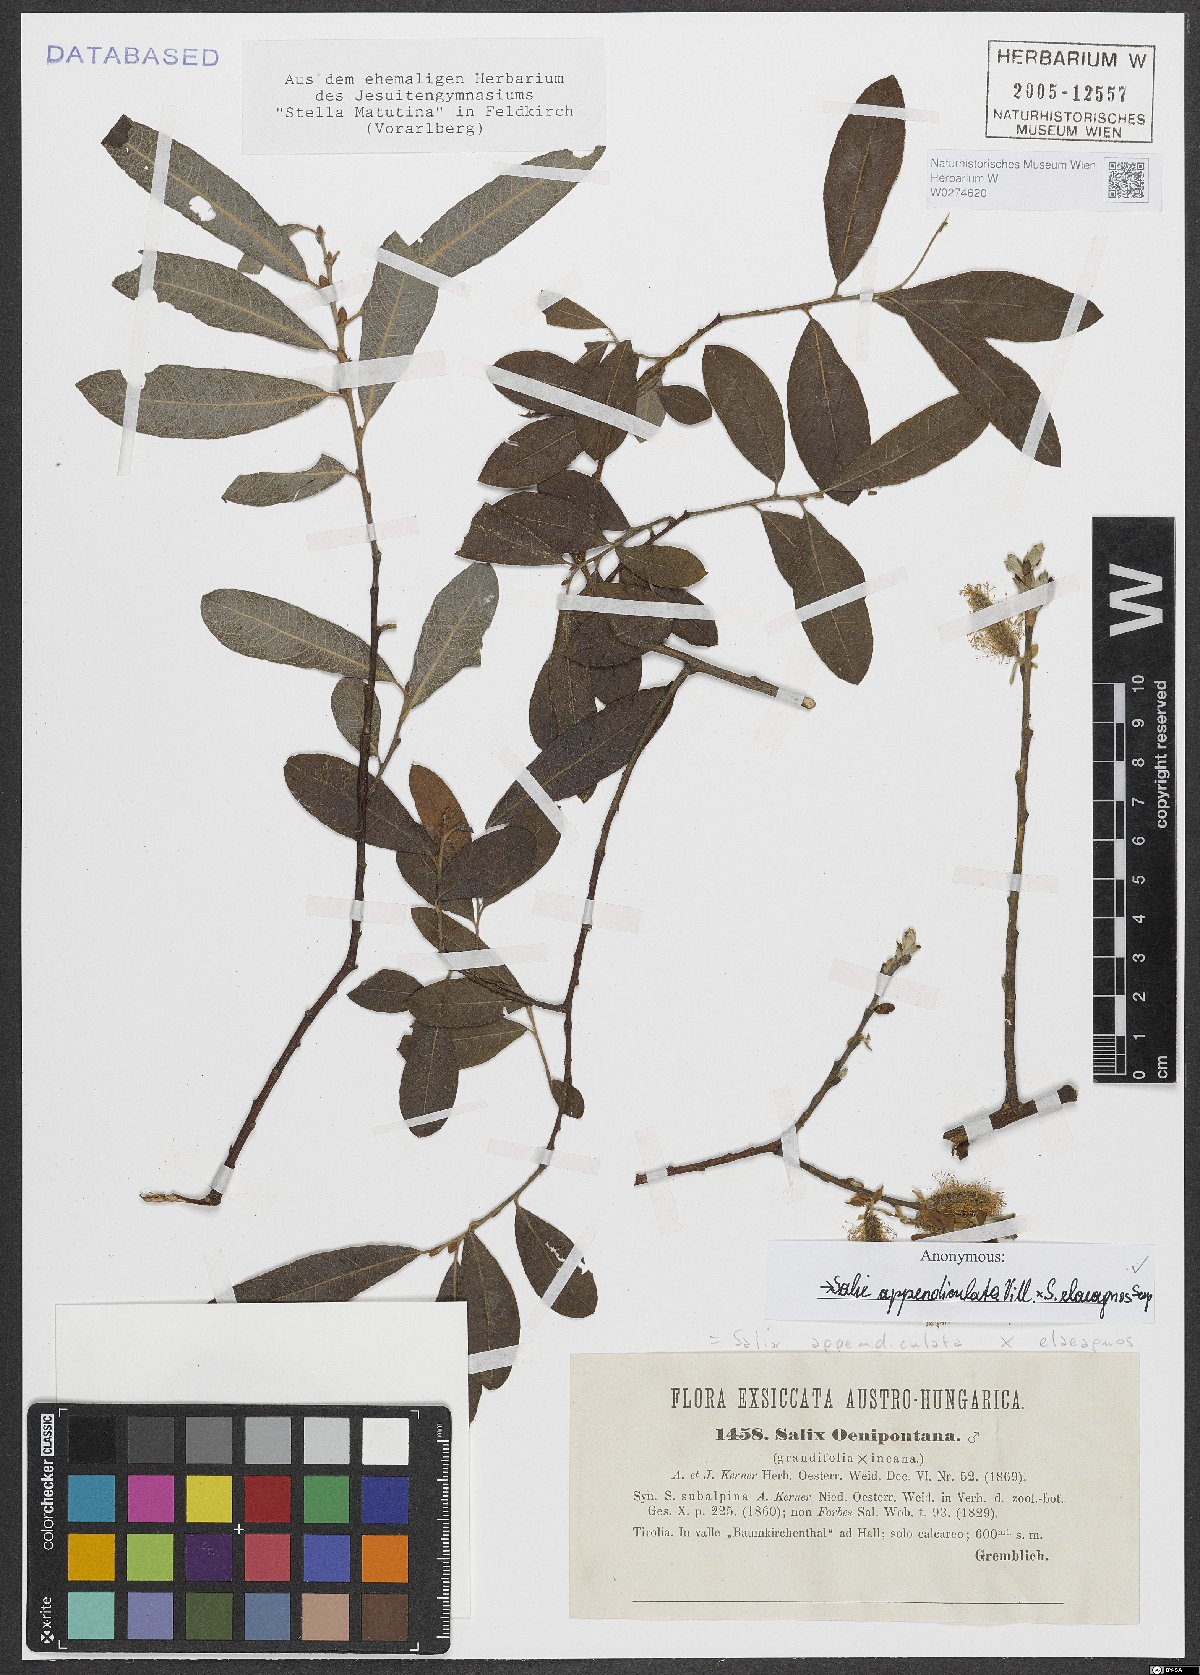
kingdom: Plantae
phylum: Tracheophyta
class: Magnoliopsida
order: Malpighiales
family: Salicaceae
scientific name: Salicaceae
